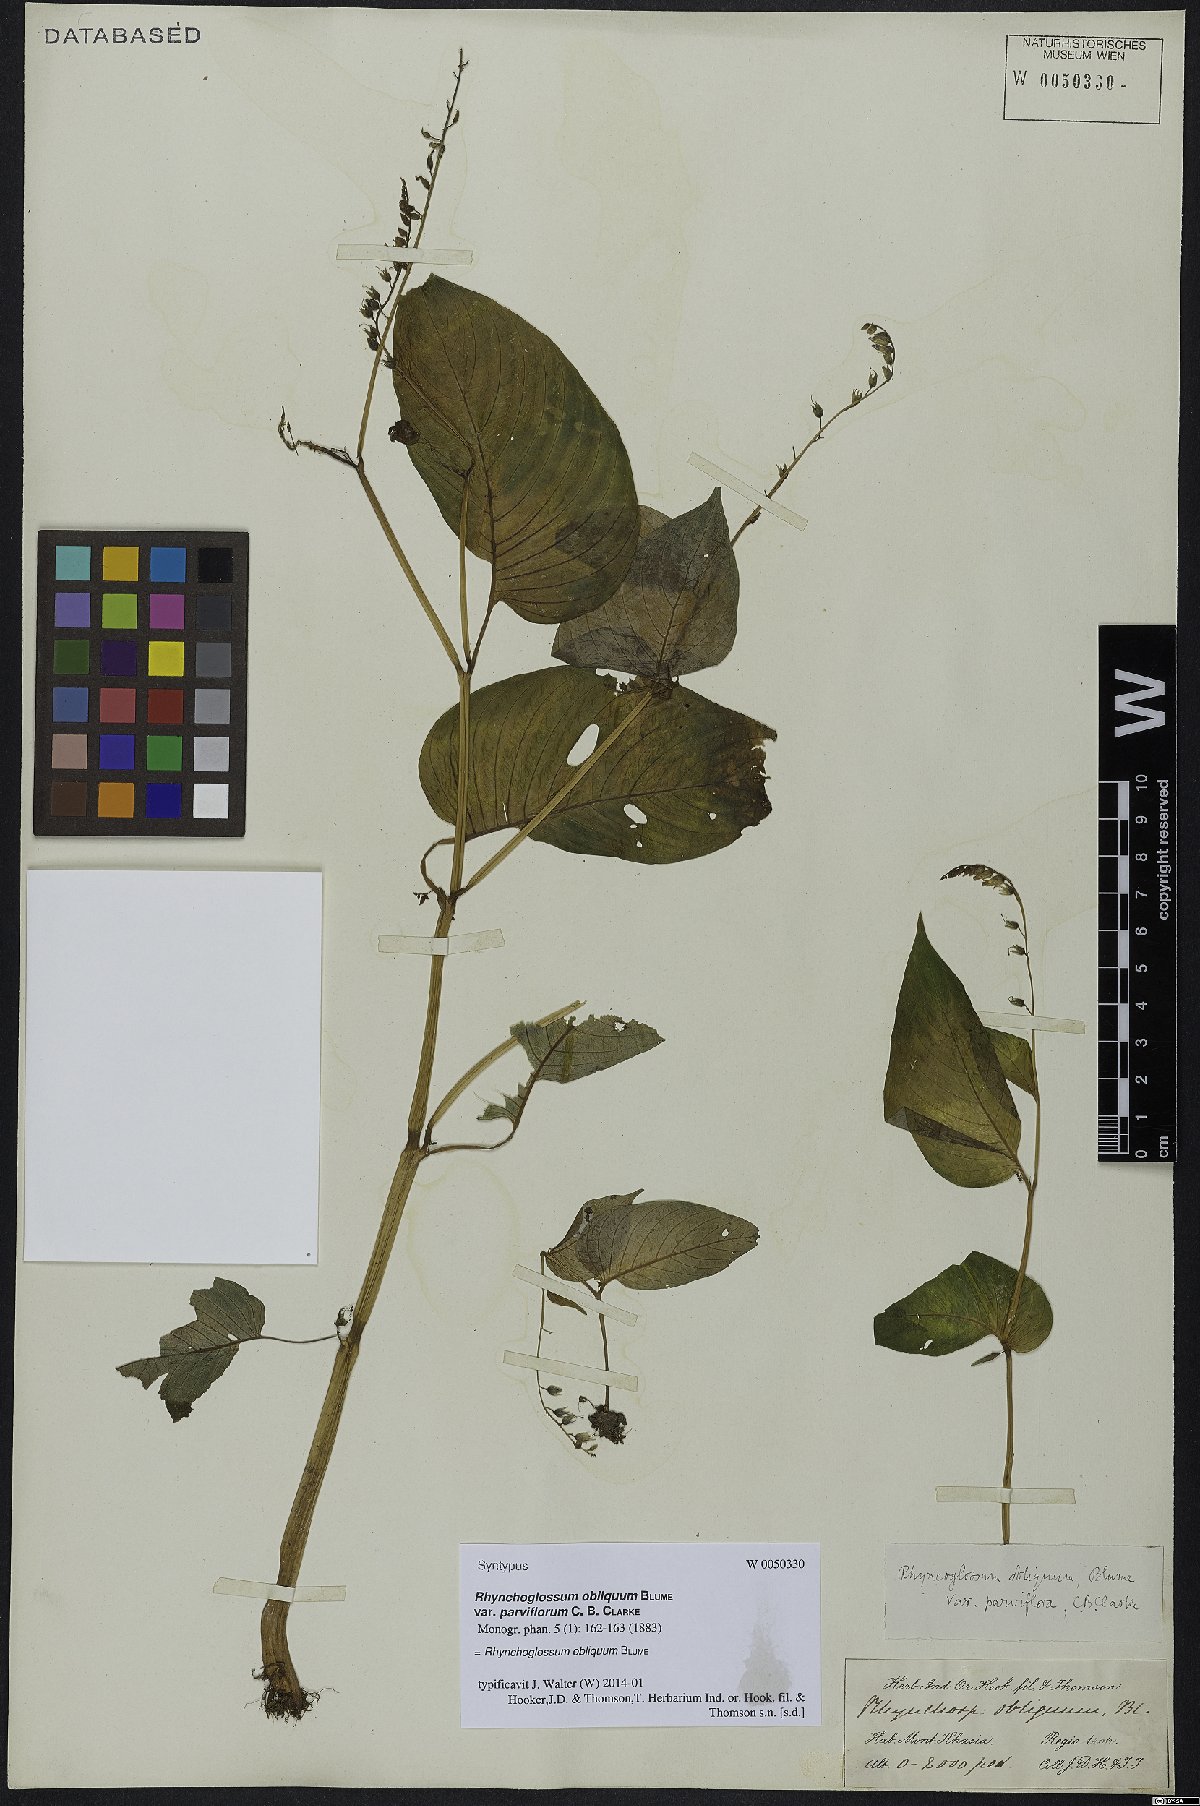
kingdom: Plantae
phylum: Tracheophyta
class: Magnoliopsida
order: Lamiales
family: Gesneriaceae
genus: Rhynchoglossum
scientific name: Rhynchoglossum obliquum
